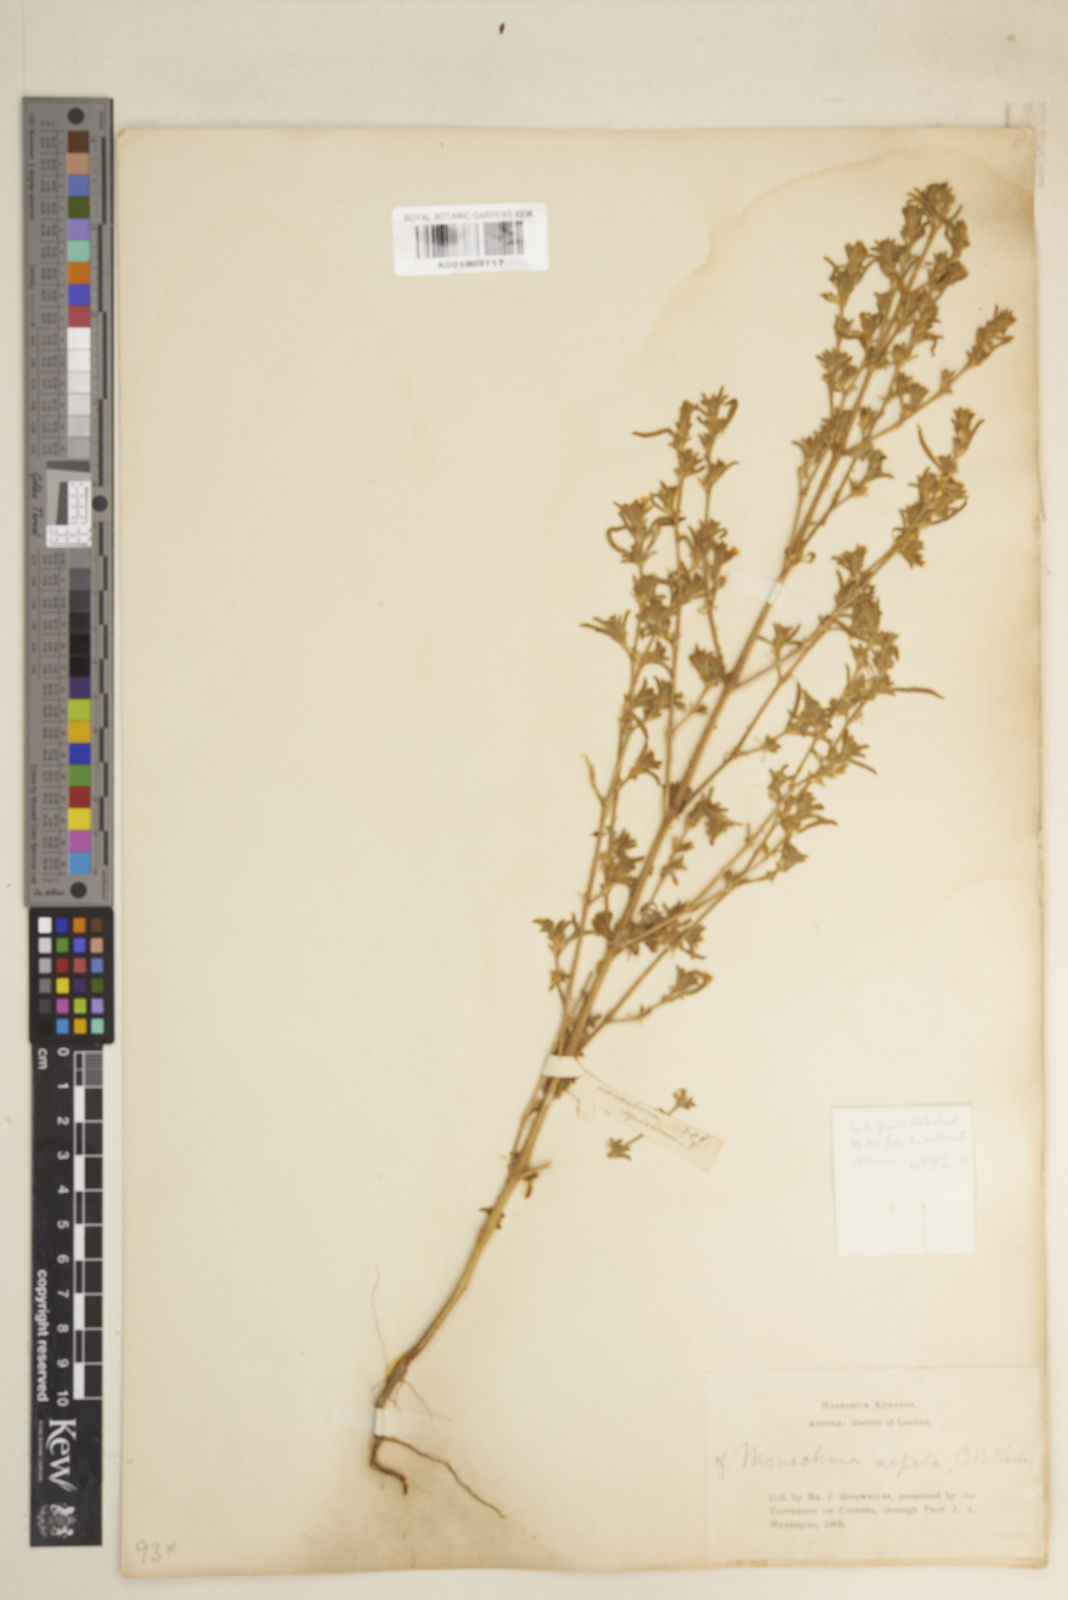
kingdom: Plantae
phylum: Tracheophyta
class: Magnoliopsida
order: Lamiales
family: Acanthaceae
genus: Pogonospermum
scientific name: Pogonospermum
